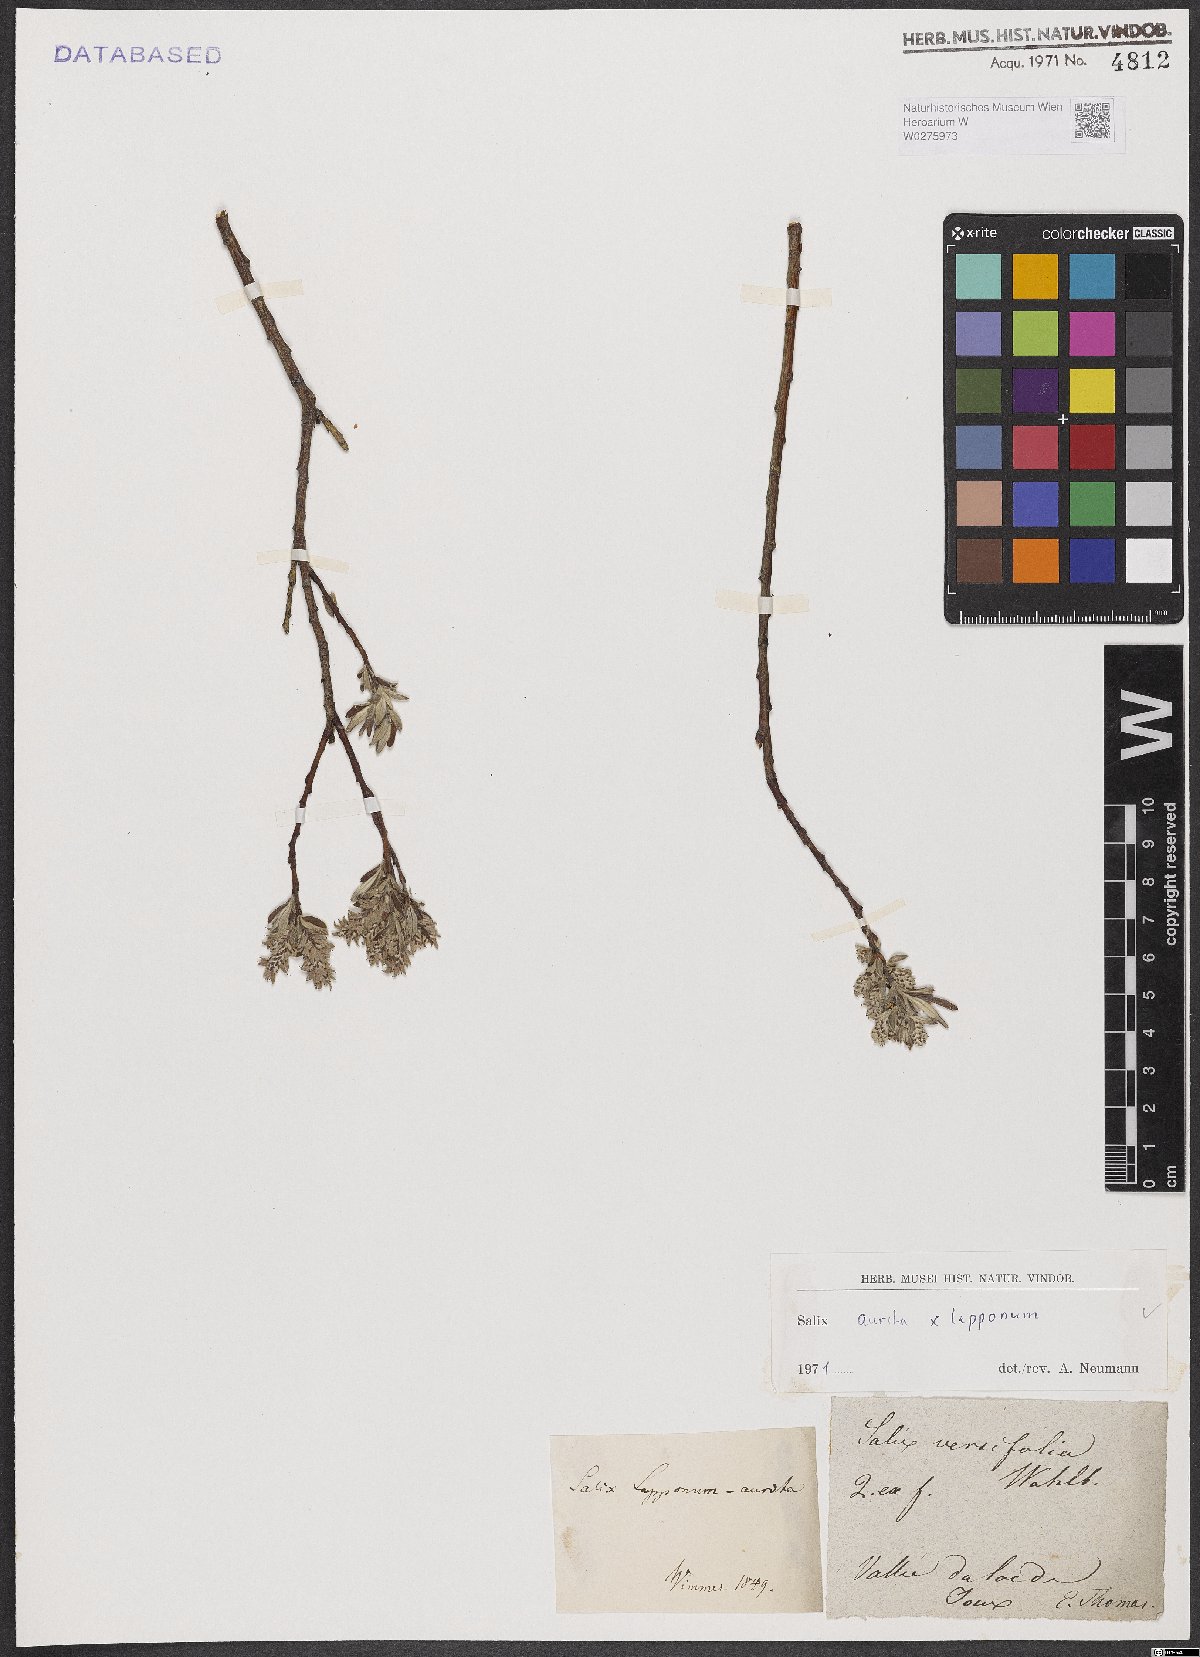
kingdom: Plantae
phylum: Tracheophyta
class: Magnoliopsida
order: Malpighiales
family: Salicaceae
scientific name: Salicaceae
